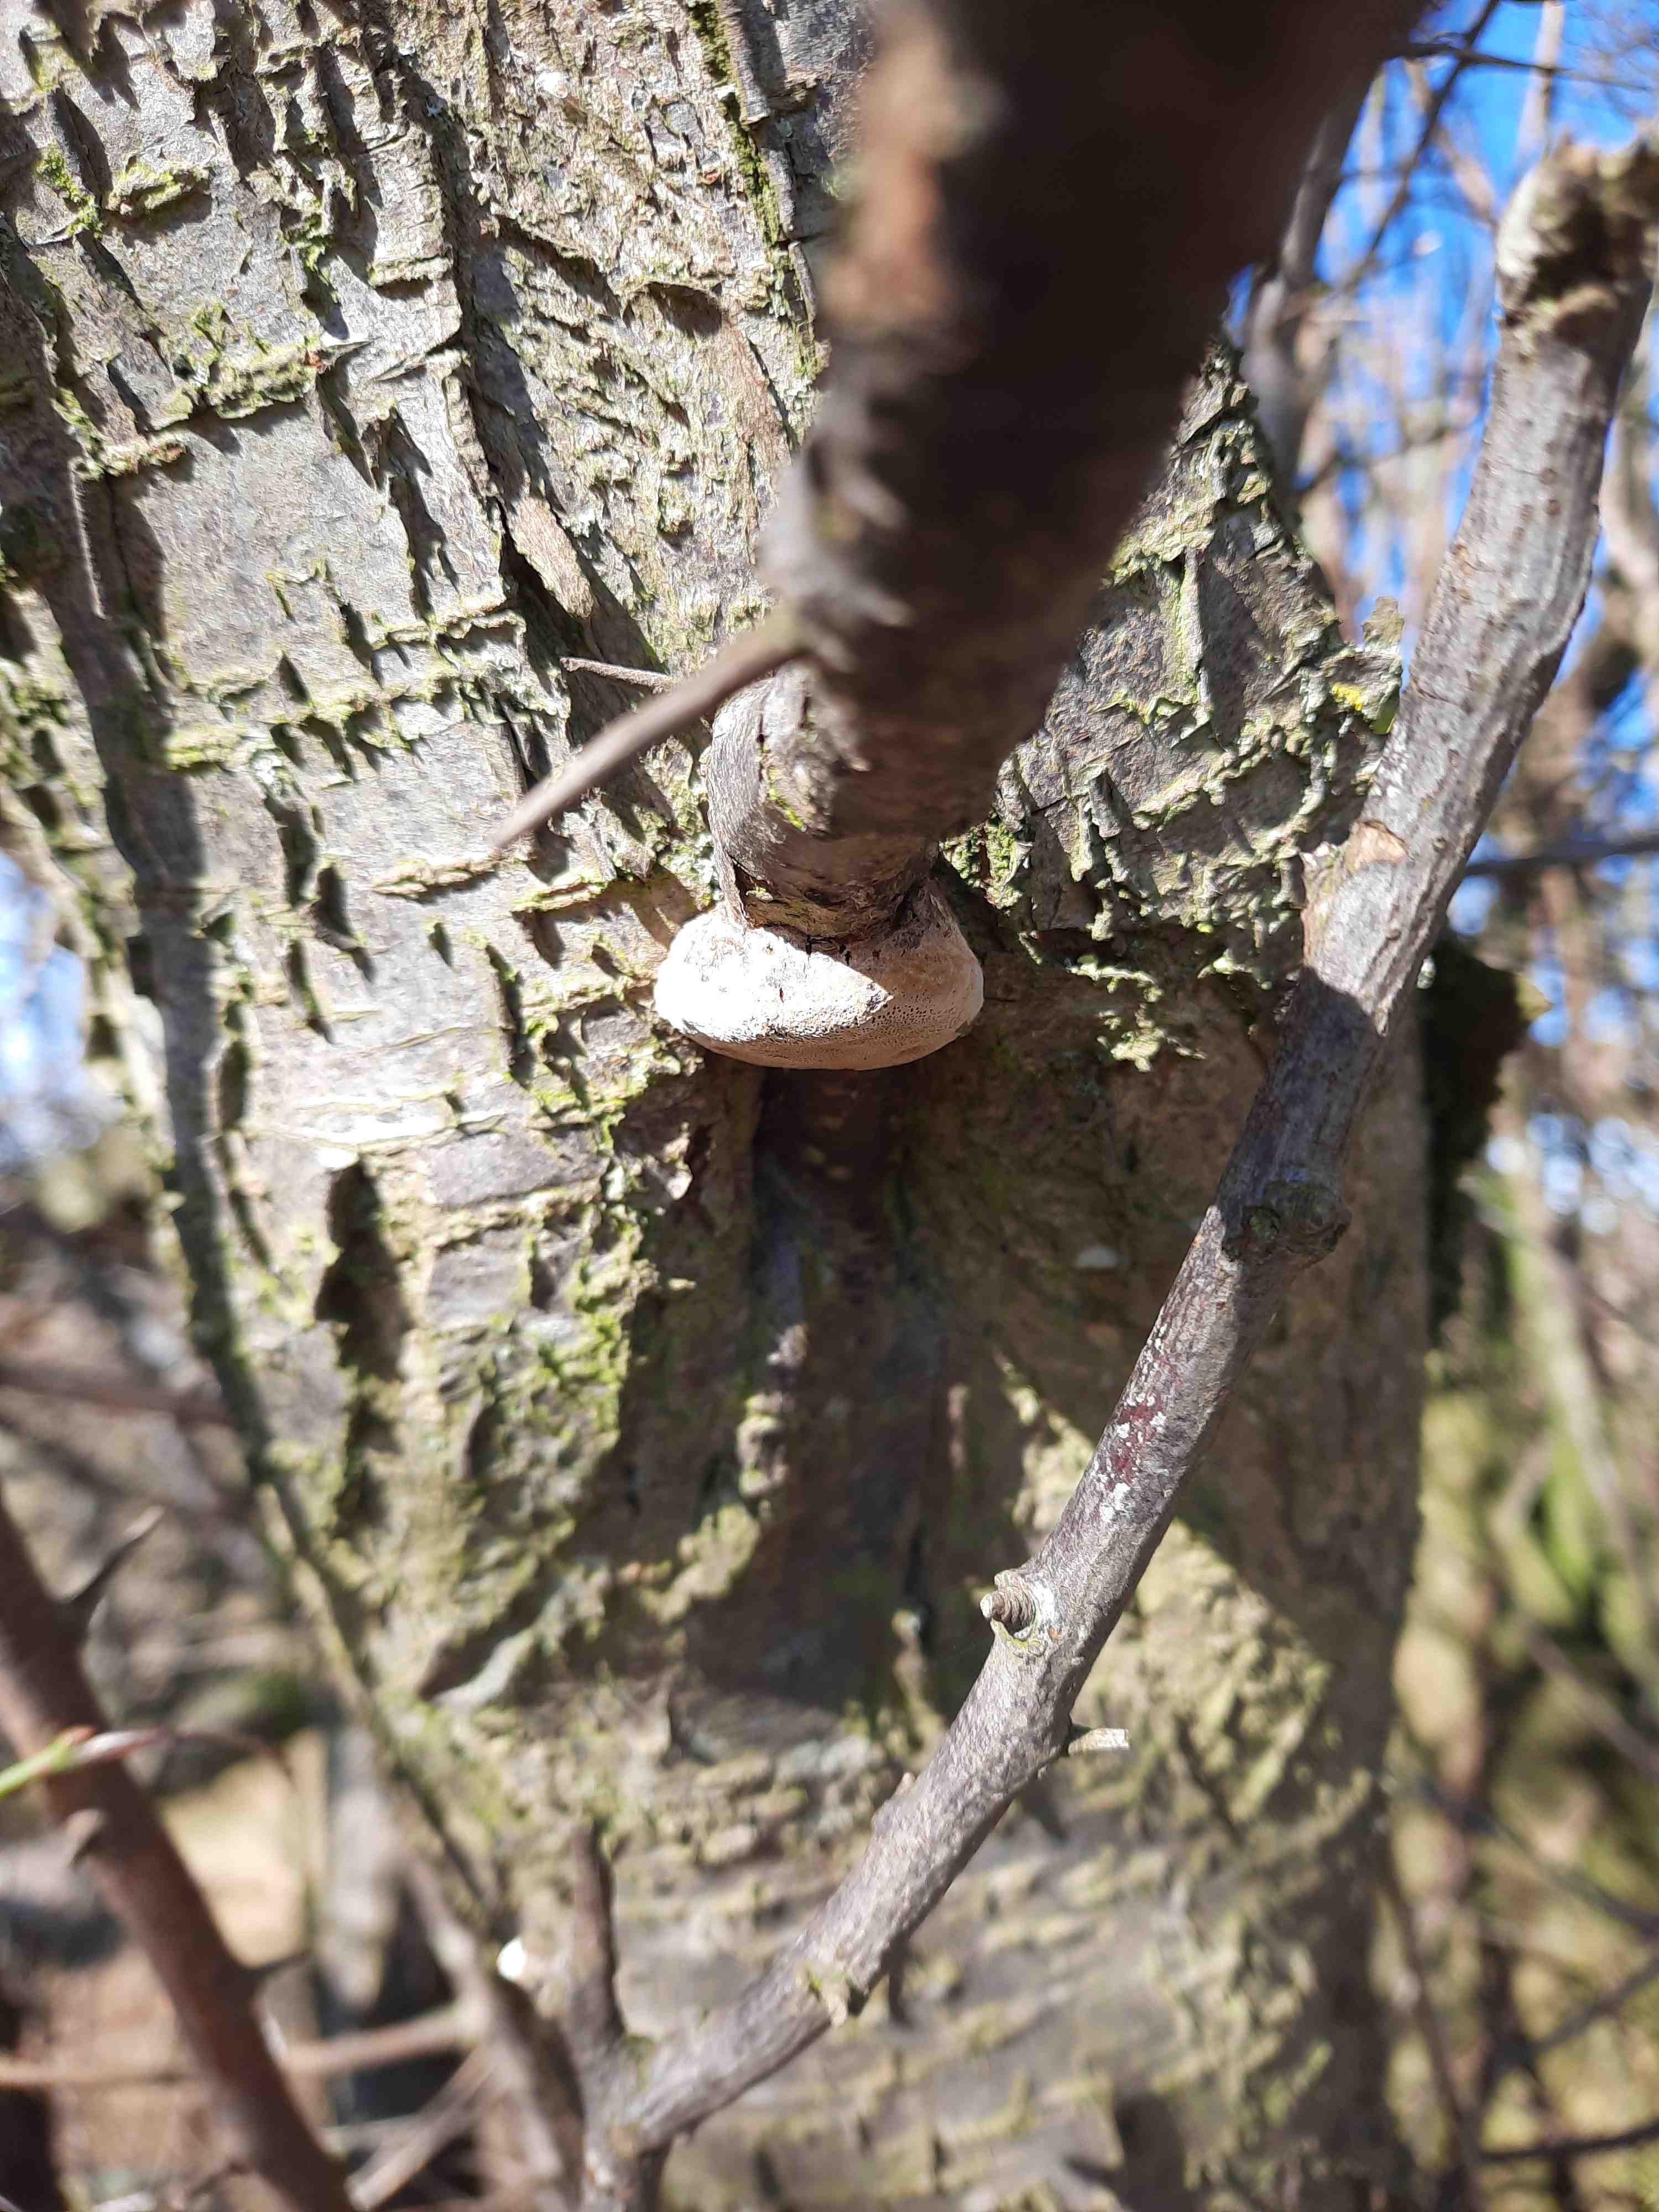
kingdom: Fungi
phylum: Basidiomycota
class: Agaricomycetes
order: Hymenochaetales
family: Hymenochaetaceae
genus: Phellinus
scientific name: Phellinus pomaceus
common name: blomme-ildporesvamp
